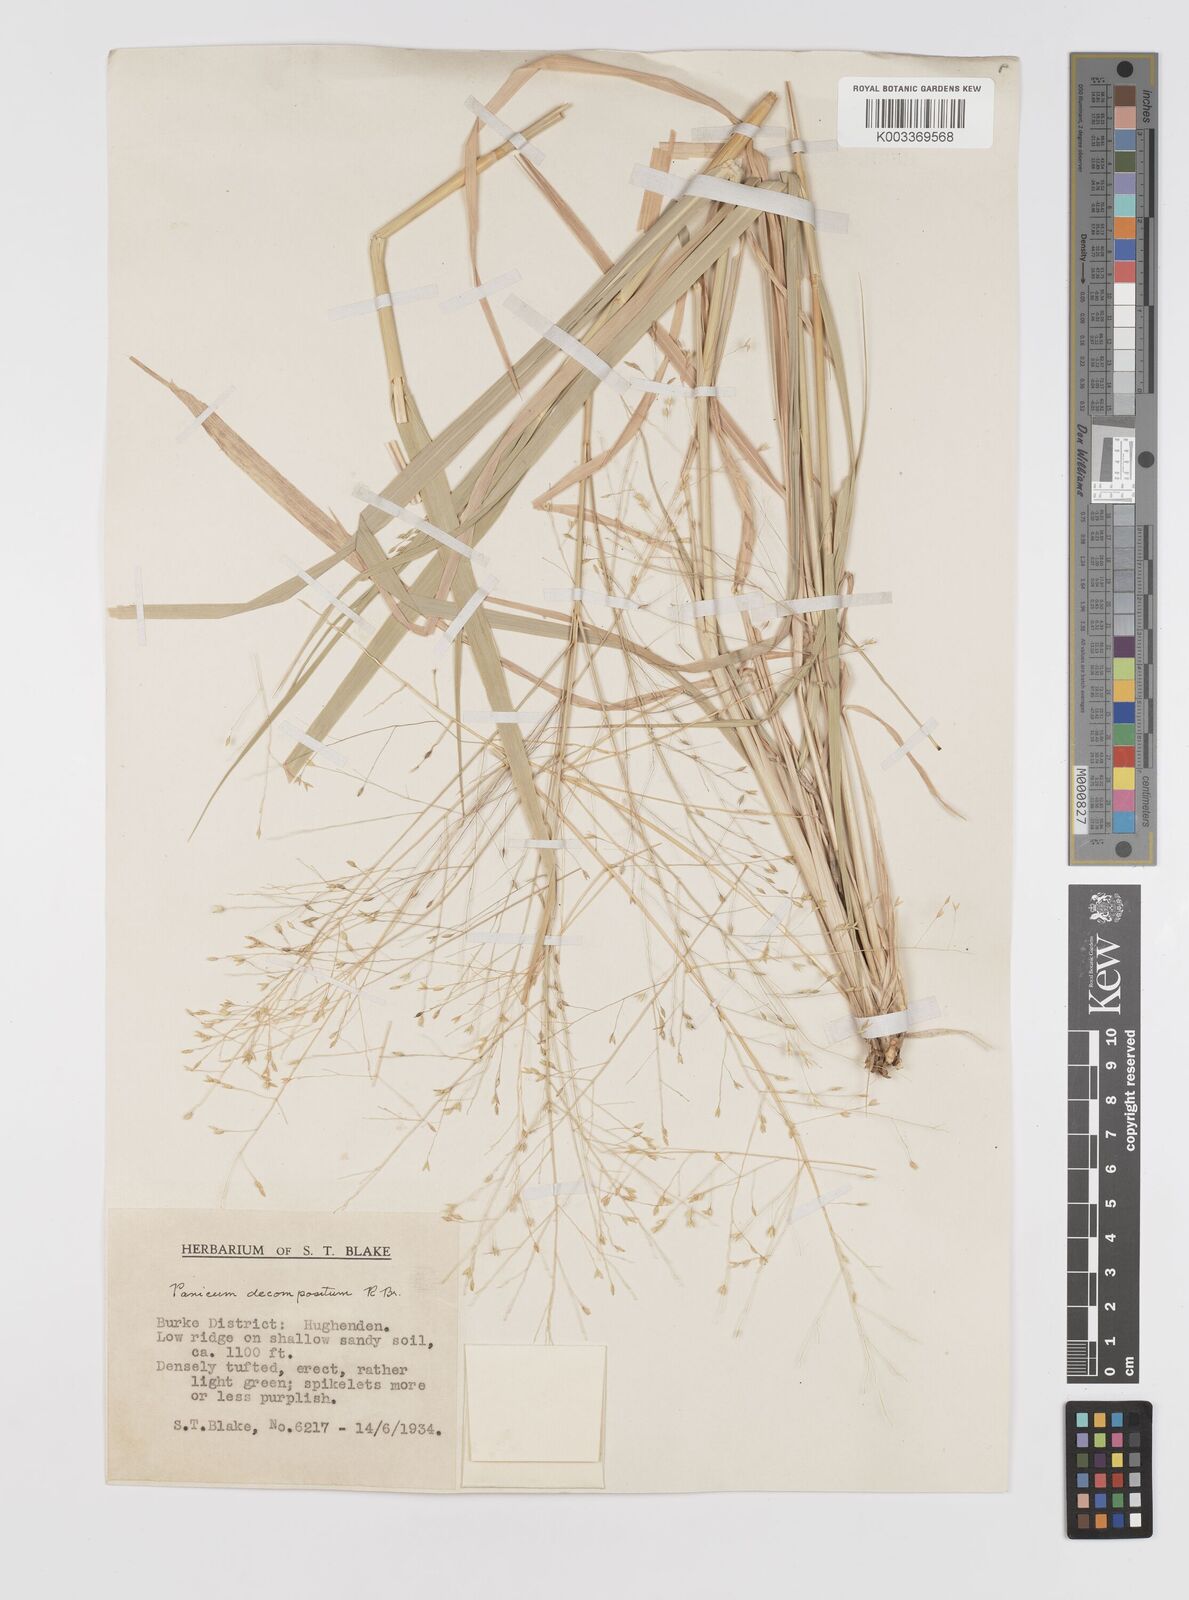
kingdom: Plantae
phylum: Tracheophyta
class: Liliopsida
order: Poales
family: Poaceae
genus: Panicum
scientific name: Panicum decompositum
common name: Australian millet
